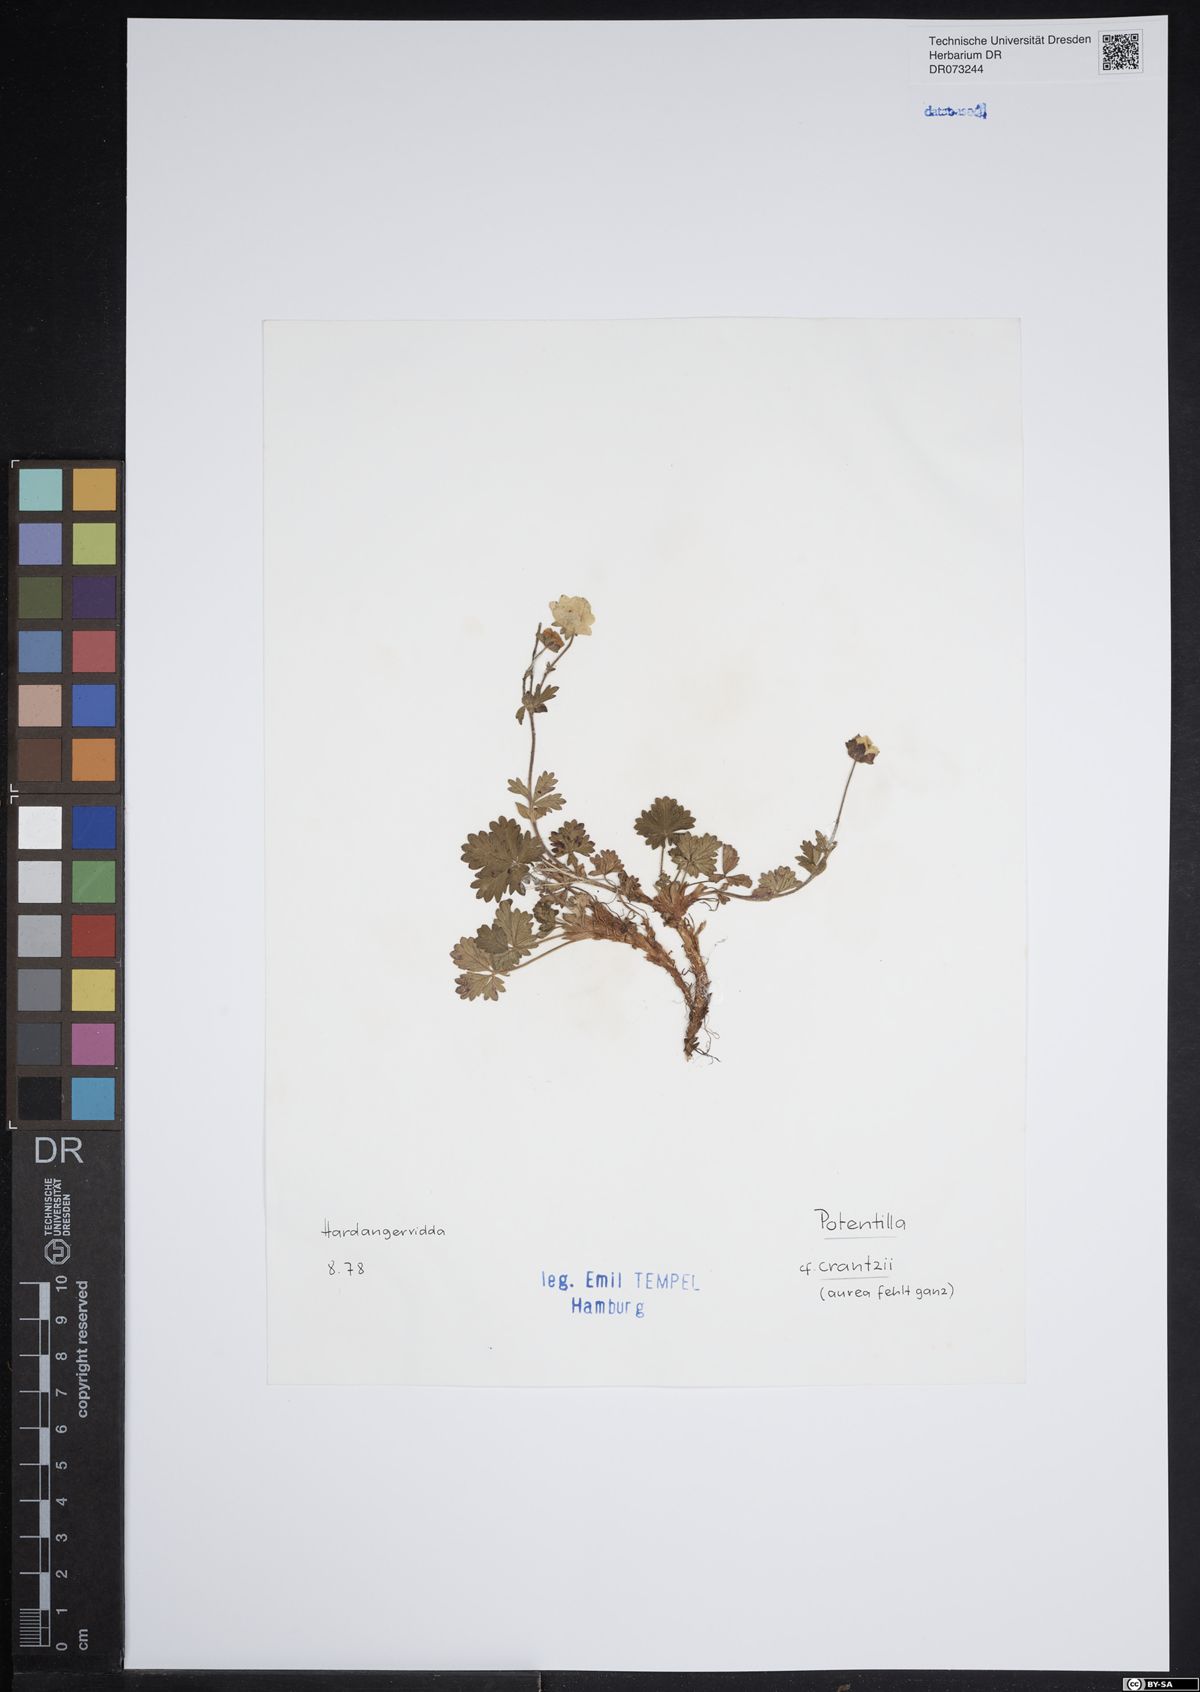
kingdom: Plantae
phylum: Tracheophyta
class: Magnoliopsida
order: Rosales
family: Rosaceae
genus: Potentilla
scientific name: Potentilla crantzii
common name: Alpine cinquefoil
